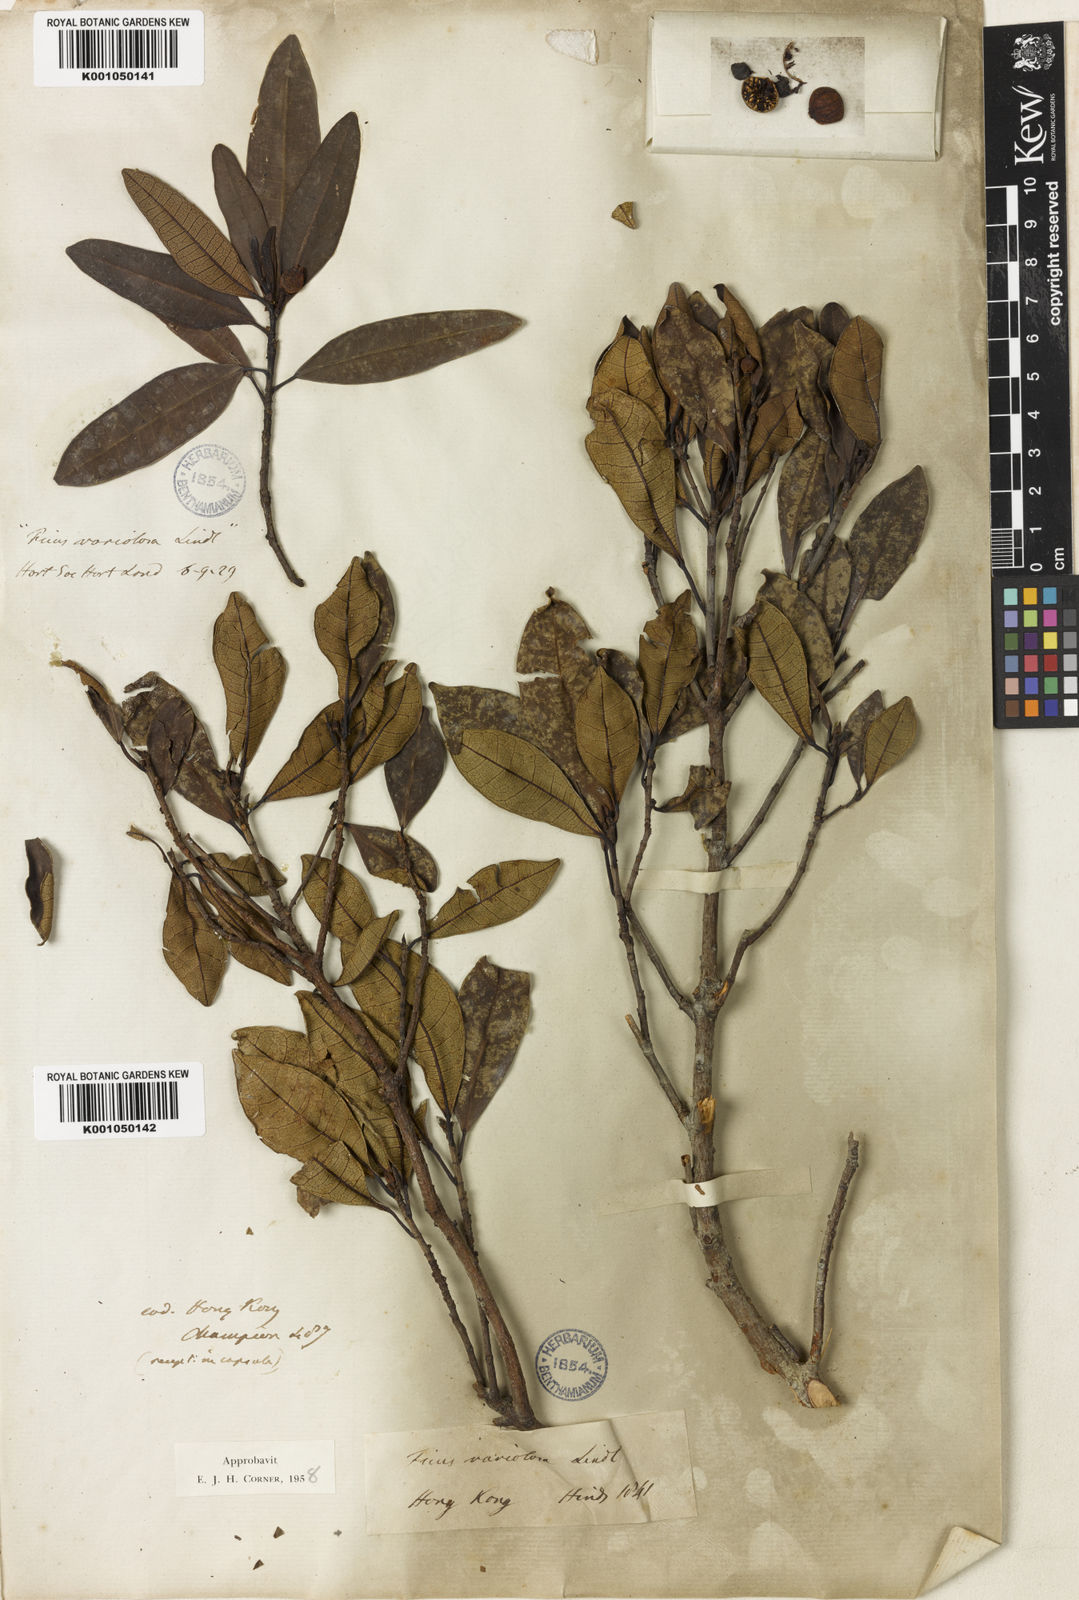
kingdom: Plantae
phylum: Tracheophyta
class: Magnoliopsida
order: Rosales
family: Moraceae
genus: Ficus
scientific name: Ficus variolosa
